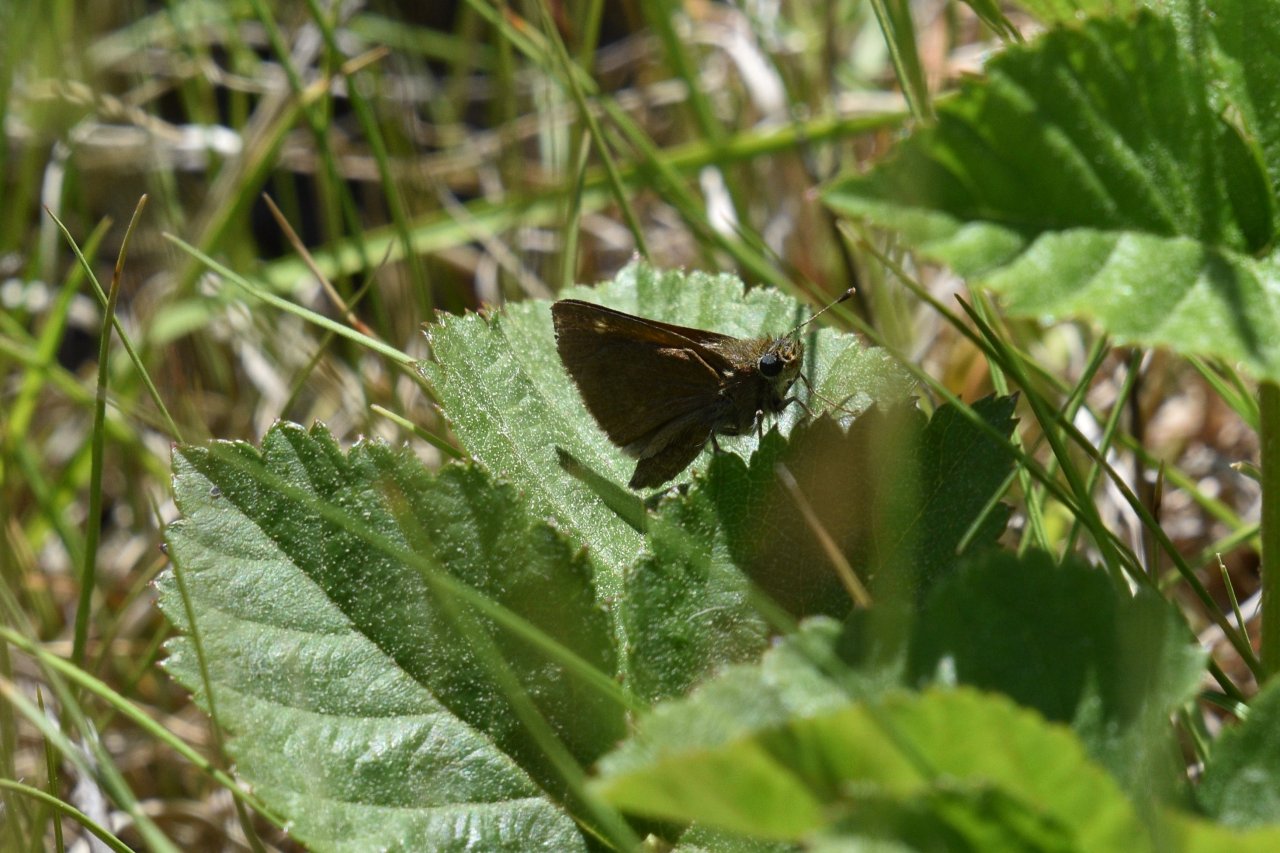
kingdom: Animalia
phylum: Arthropoda
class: Insecta
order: Lepidoptera
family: Hesperiidae
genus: Polites
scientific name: Polites themistocles
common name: Tawny-edged Skipper
